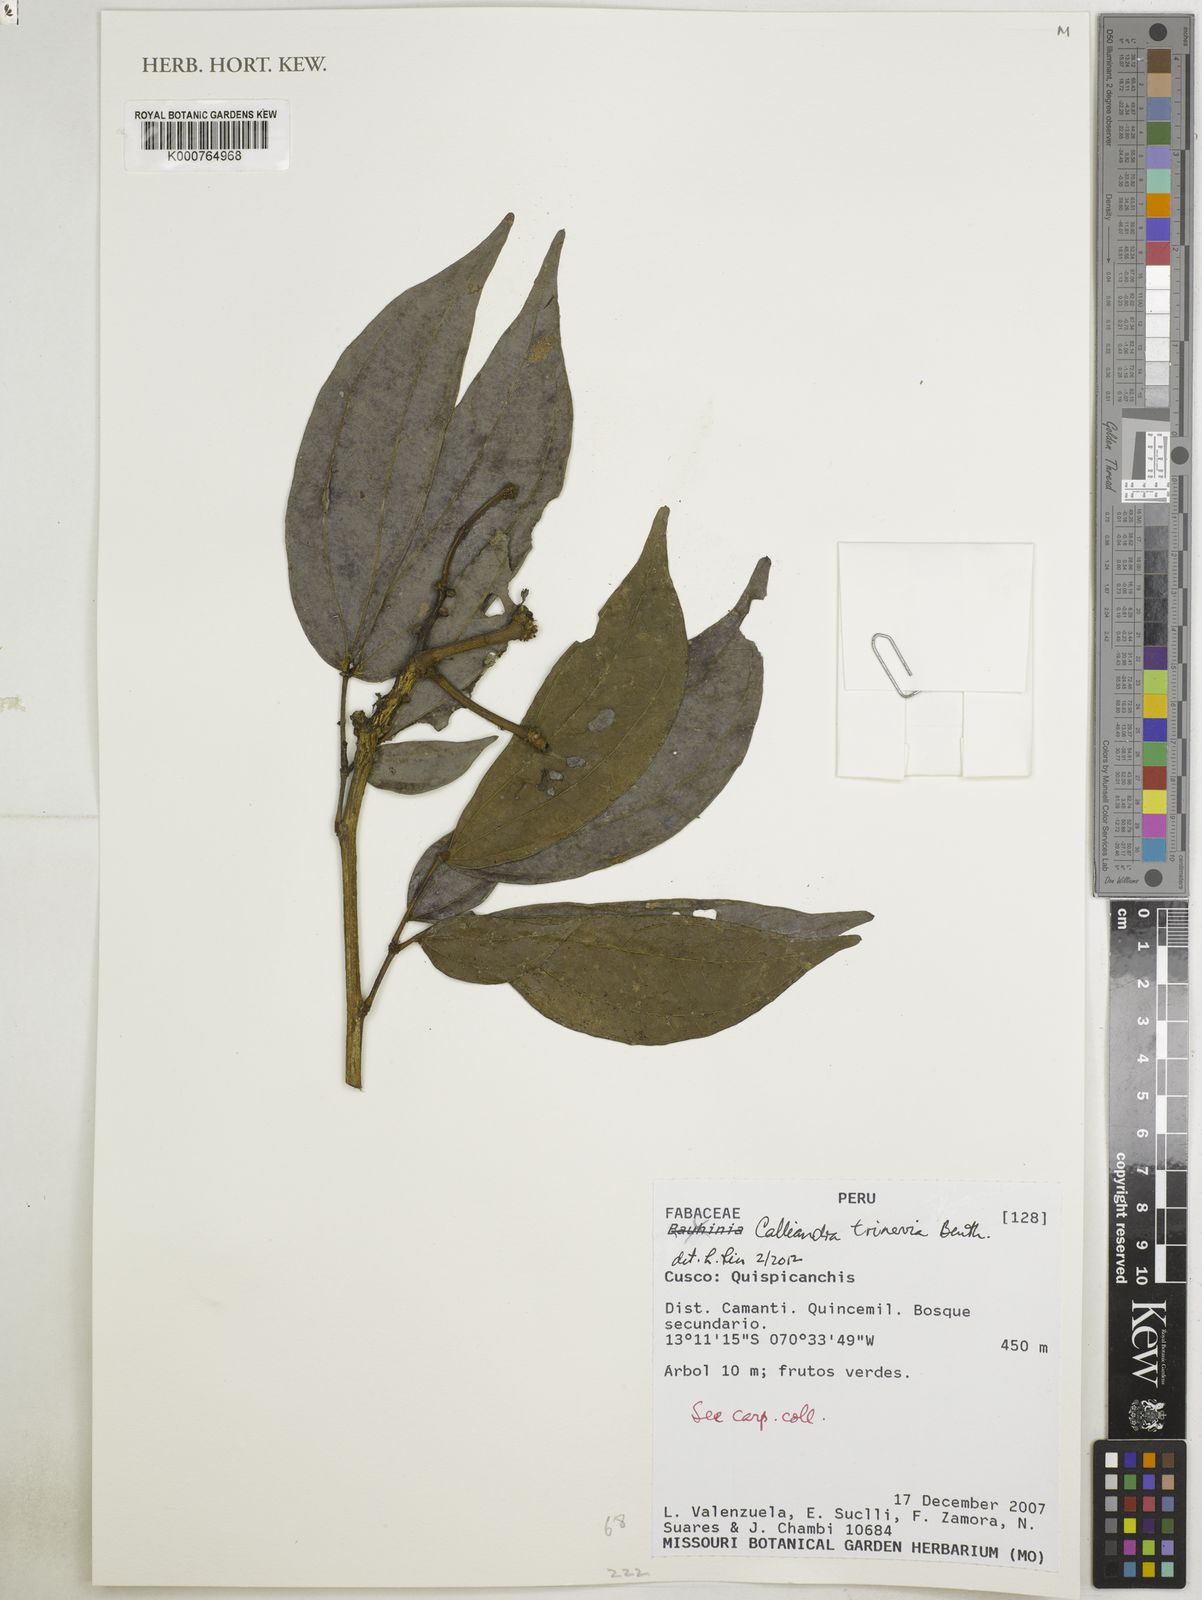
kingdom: Plantae
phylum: Tracheophyta
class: Magnoliopsida
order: Fabales
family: Fabaceae
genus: Calliandra
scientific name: Calliandra trinervia
